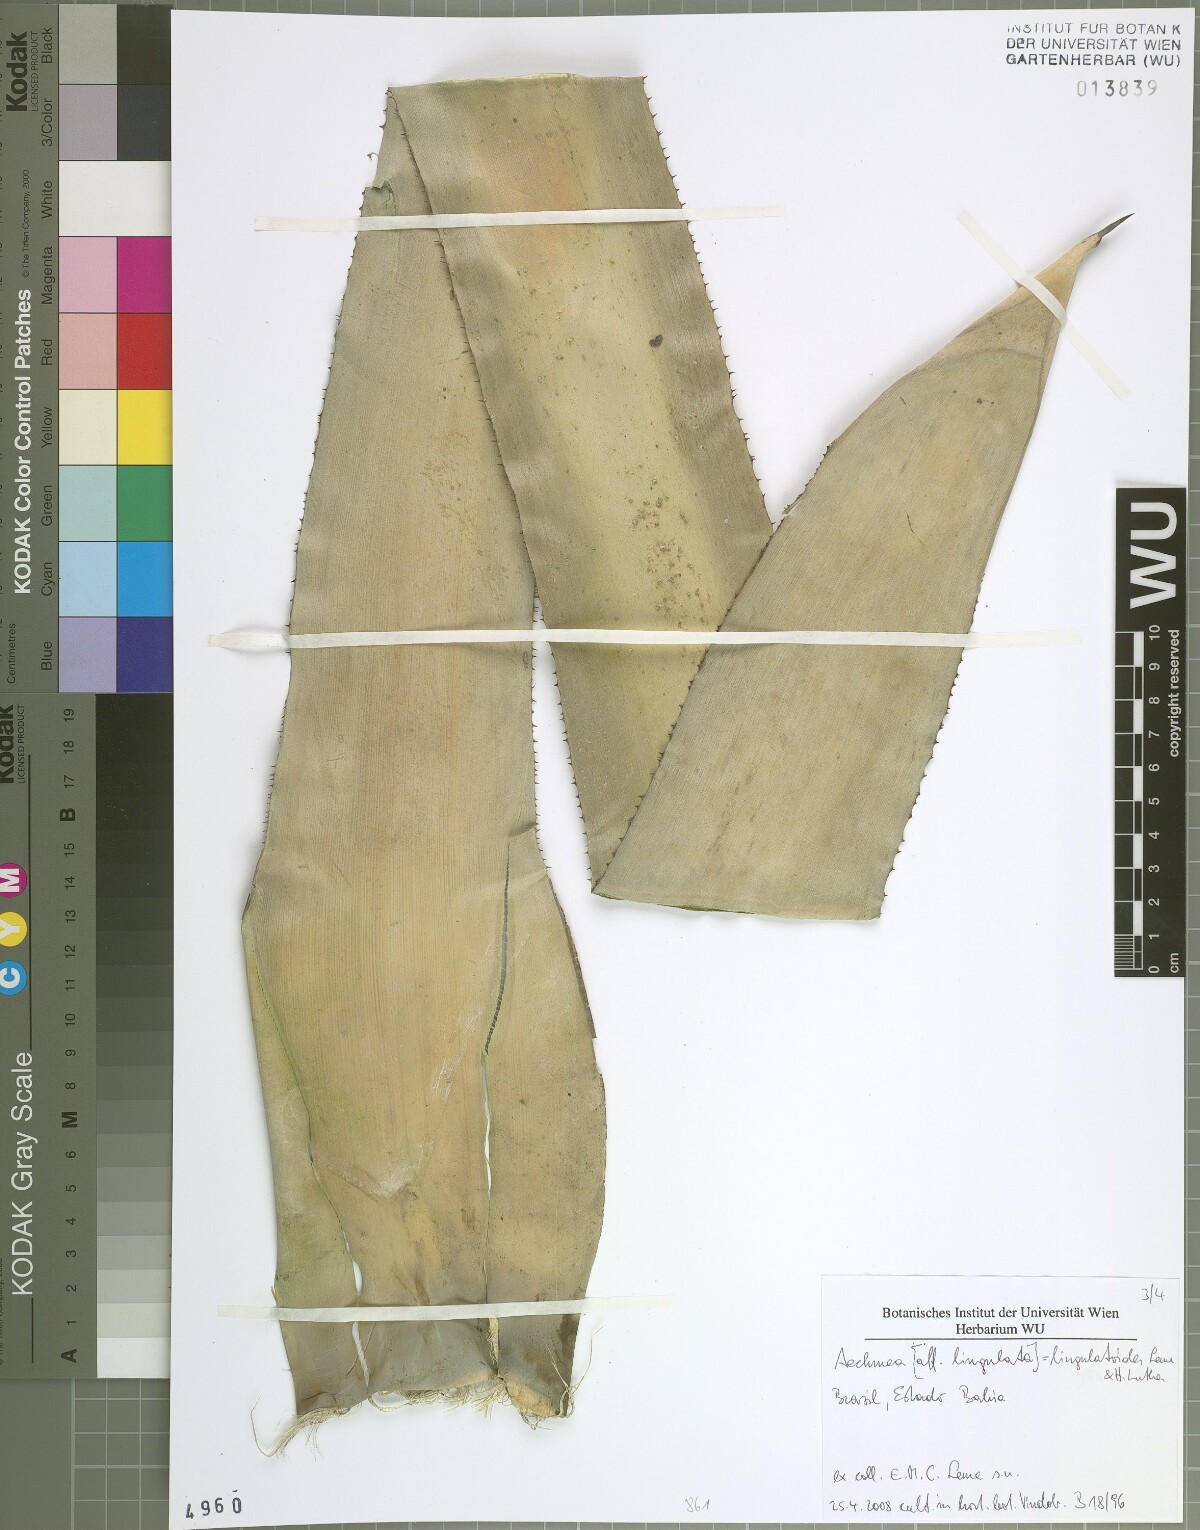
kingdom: Plantae
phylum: Tracheophyta
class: Liliopsida
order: Poales
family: Bromeliaceae
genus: Wittmackia
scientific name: Wittmackia lingulatoides
